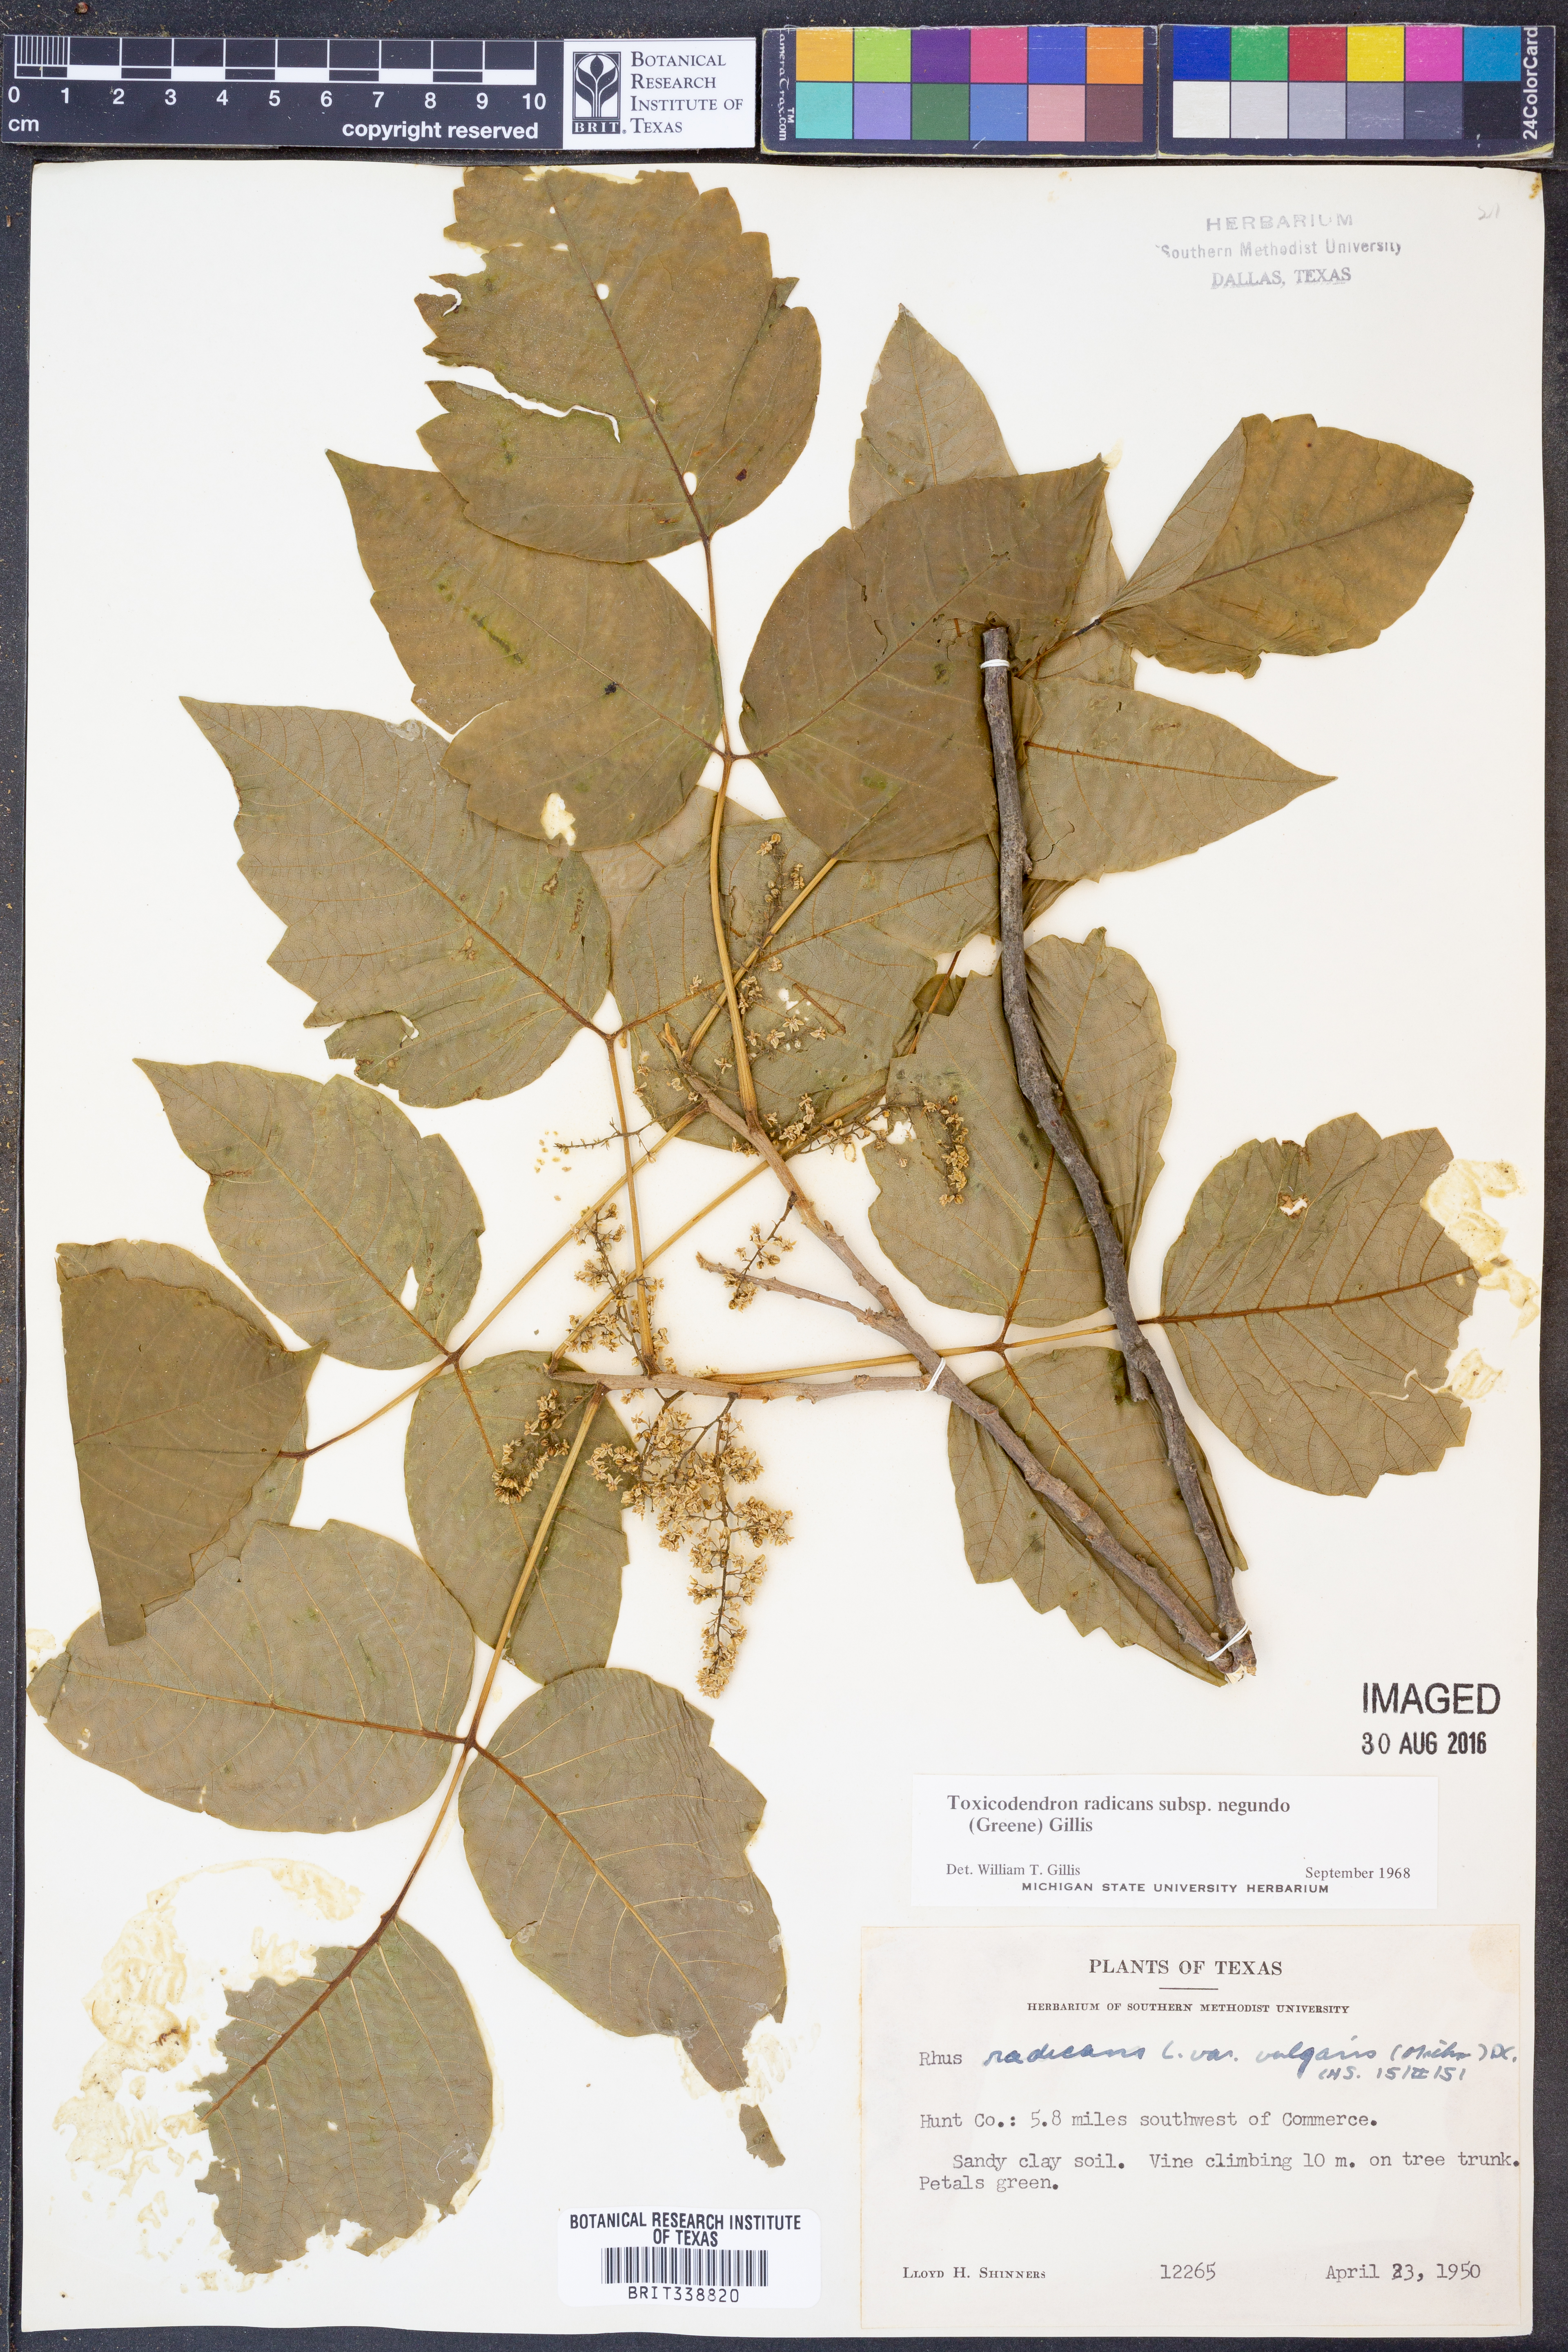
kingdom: Plantae
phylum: Tracheophyta
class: Magnoliopsida
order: Sapindales
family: Anacardiaceae
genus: Toxicodendron
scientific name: Toxicodendron radicans
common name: Poison ivy
